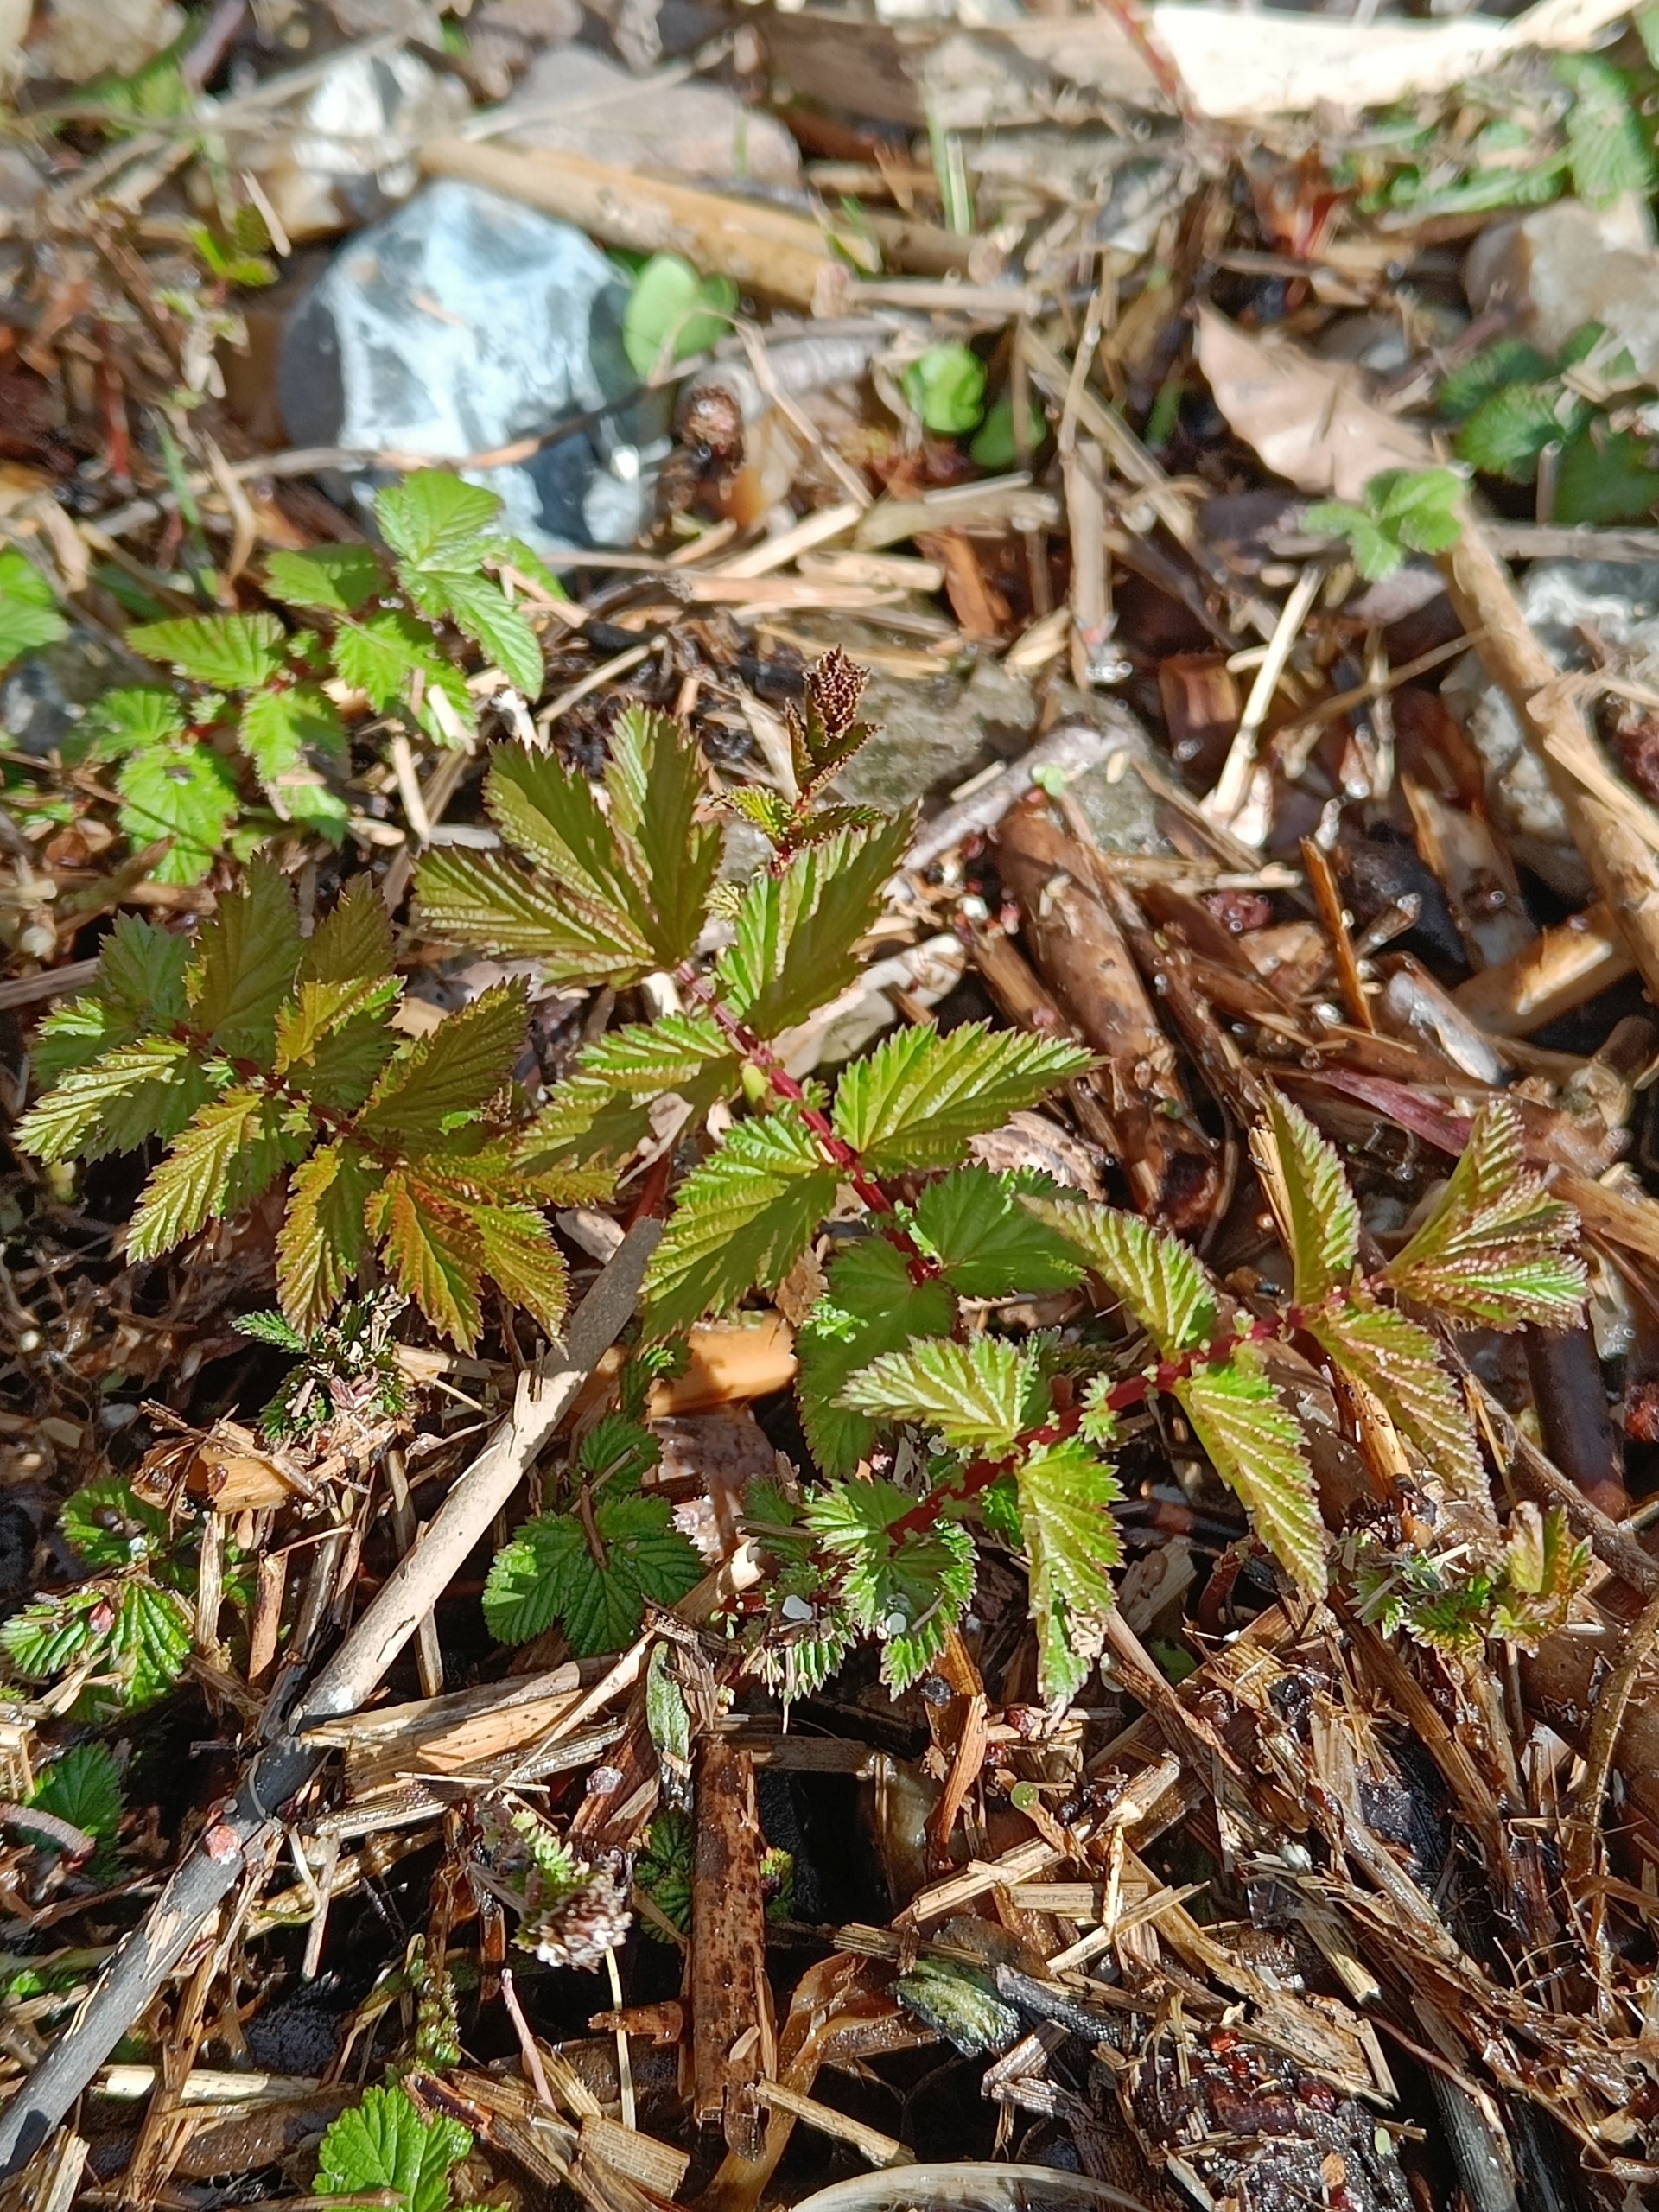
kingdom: Plantae
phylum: Tracheophyta
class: Magnoliopsida
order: Rosales
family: Rosaceae
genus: Filipendula
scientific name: Filipendula ulmaria
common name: Almindelig mjødurt
